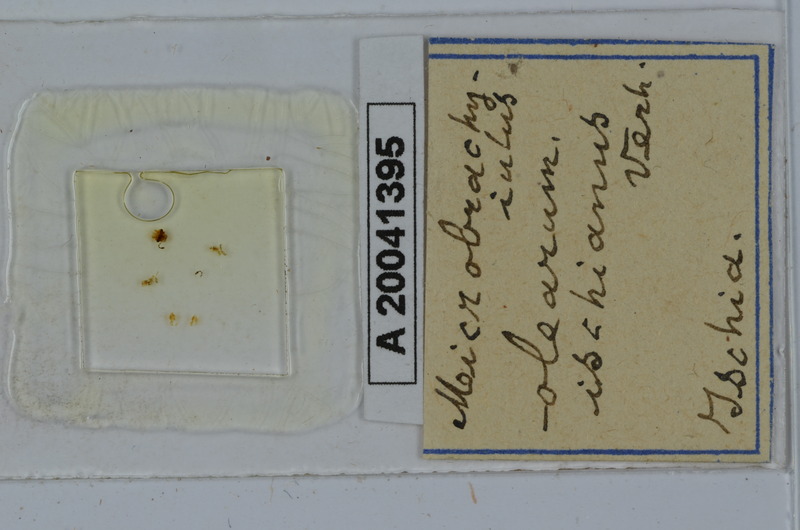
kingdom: Animalia
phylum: Arthropoda
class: Diplopoda
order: Julida
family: Julidae
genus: Microbrachyiulus
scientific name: Microbrachyiulus olearum
